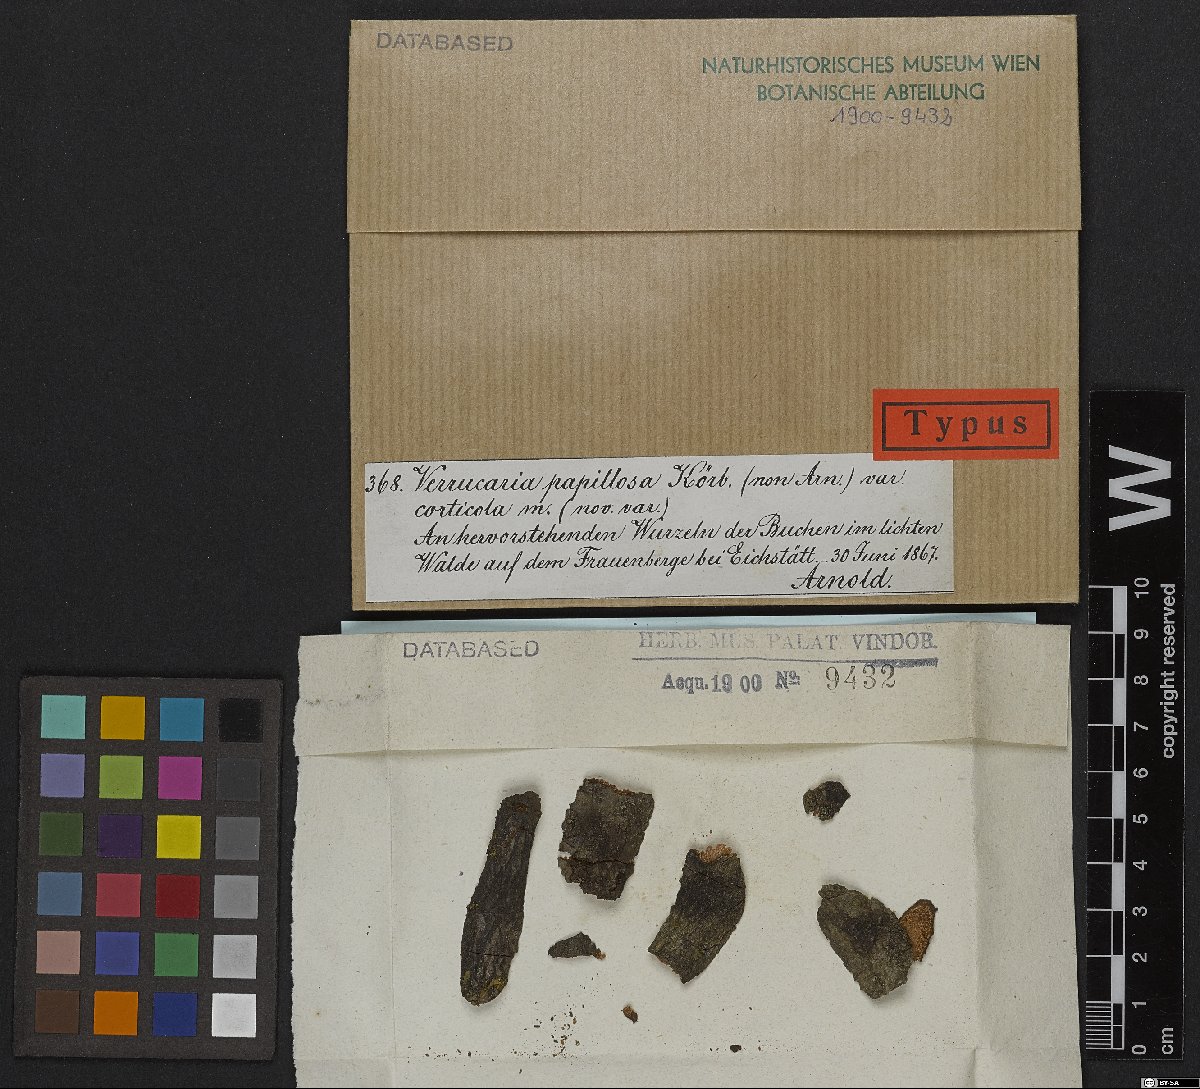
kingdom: Fungi
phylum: Ascomycota
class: Eurotiomycetes
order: Verrucariales
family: Verrucariaceae
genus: Verrucaria
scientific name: Verrucaria corticola
